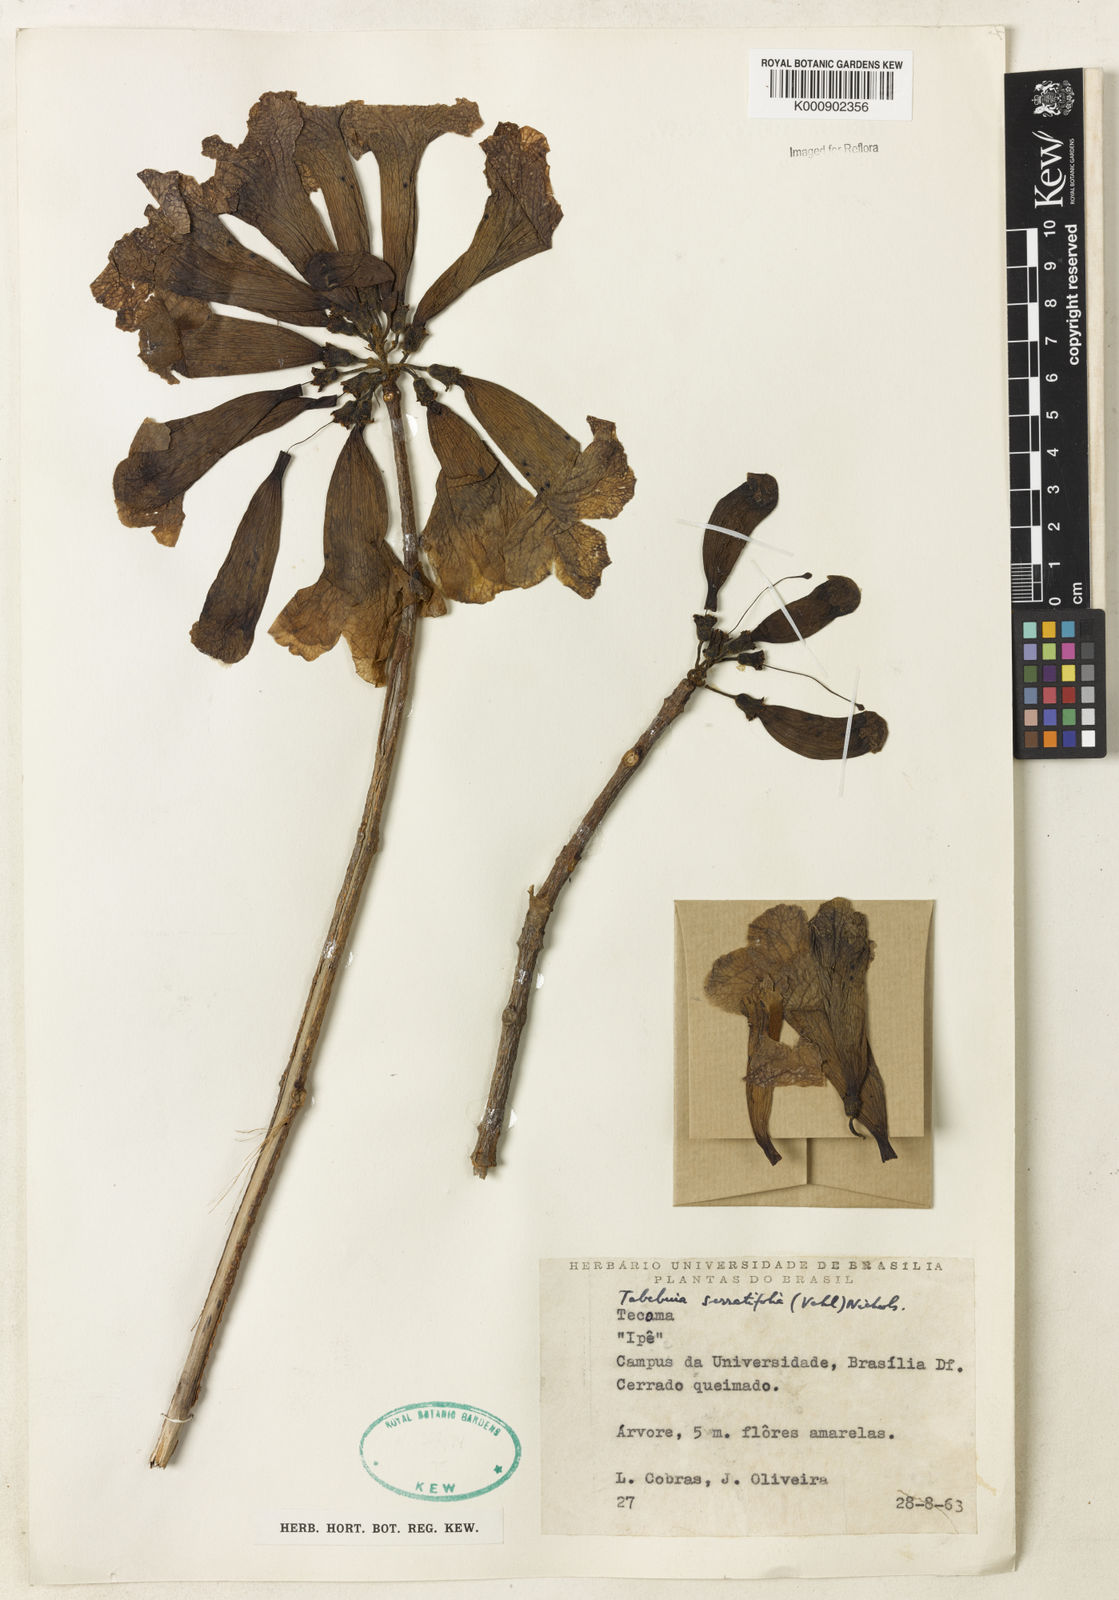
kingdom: Plantae
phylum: Tracheophyta
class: Magnoliopsida
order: Lamiales
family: Bignoniaceae
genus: Handroanthus
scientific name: Handroanthus serratifolius
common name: Yellow ipe
